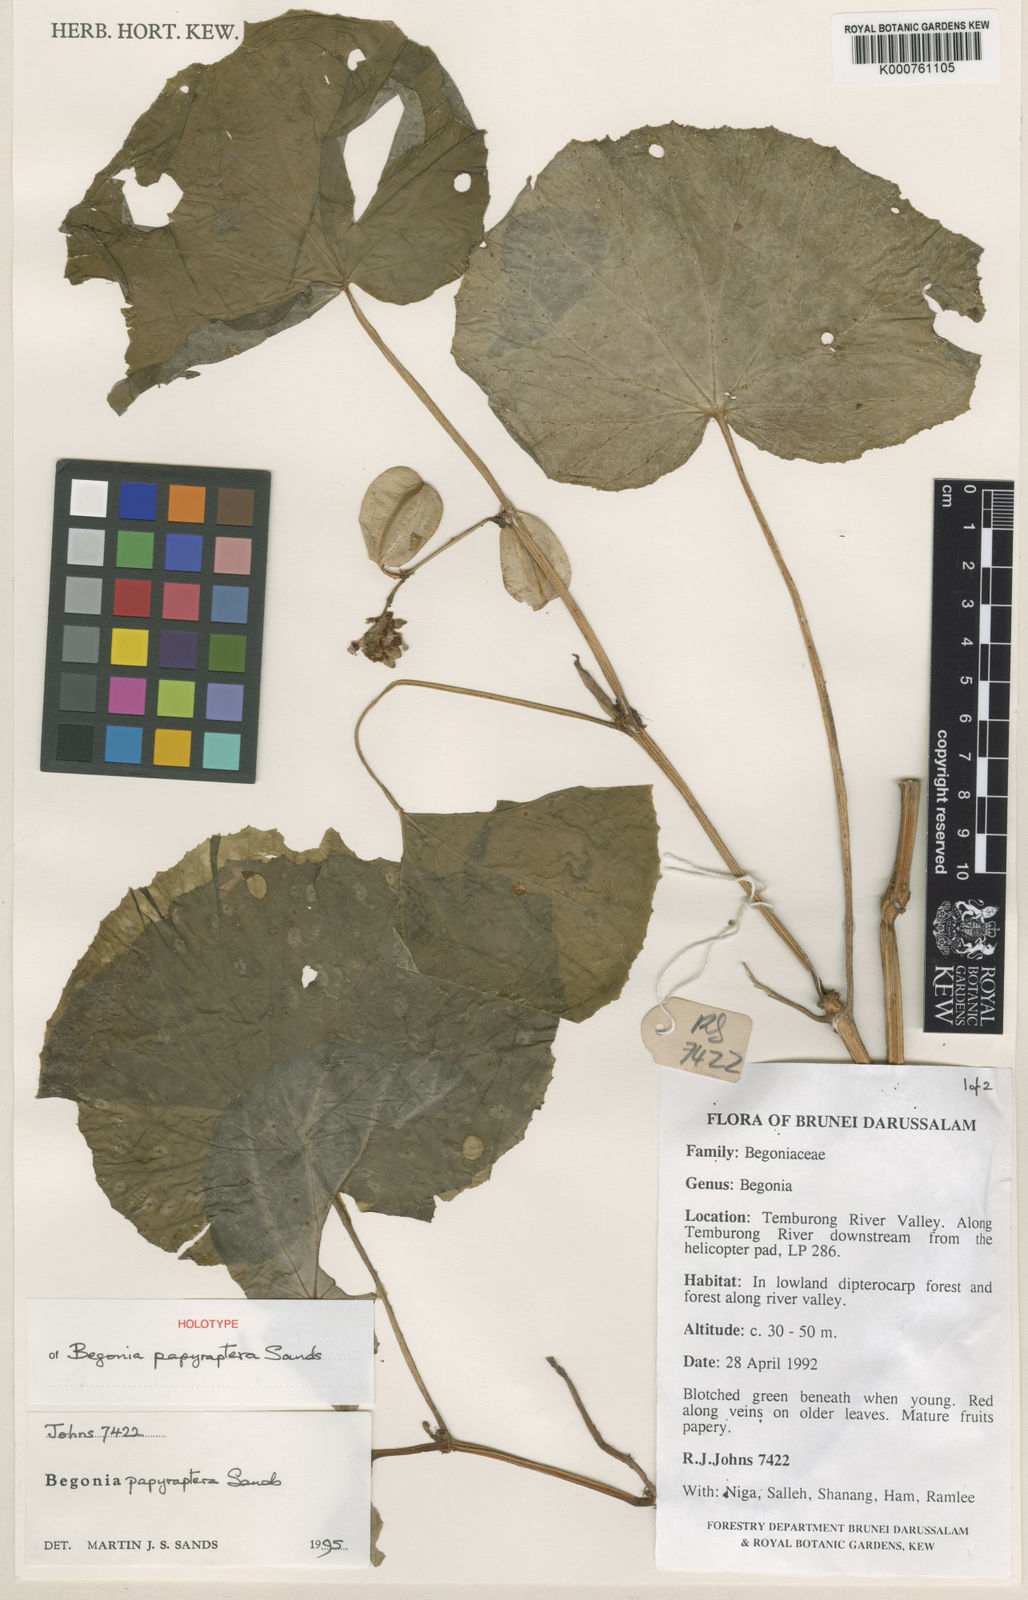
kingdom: Plantae
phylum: Tracheophyta
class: Magnoliopsida
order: Cucurbitales
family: Begoniaceae
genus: Begonia
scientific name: Begonia papyraptera
